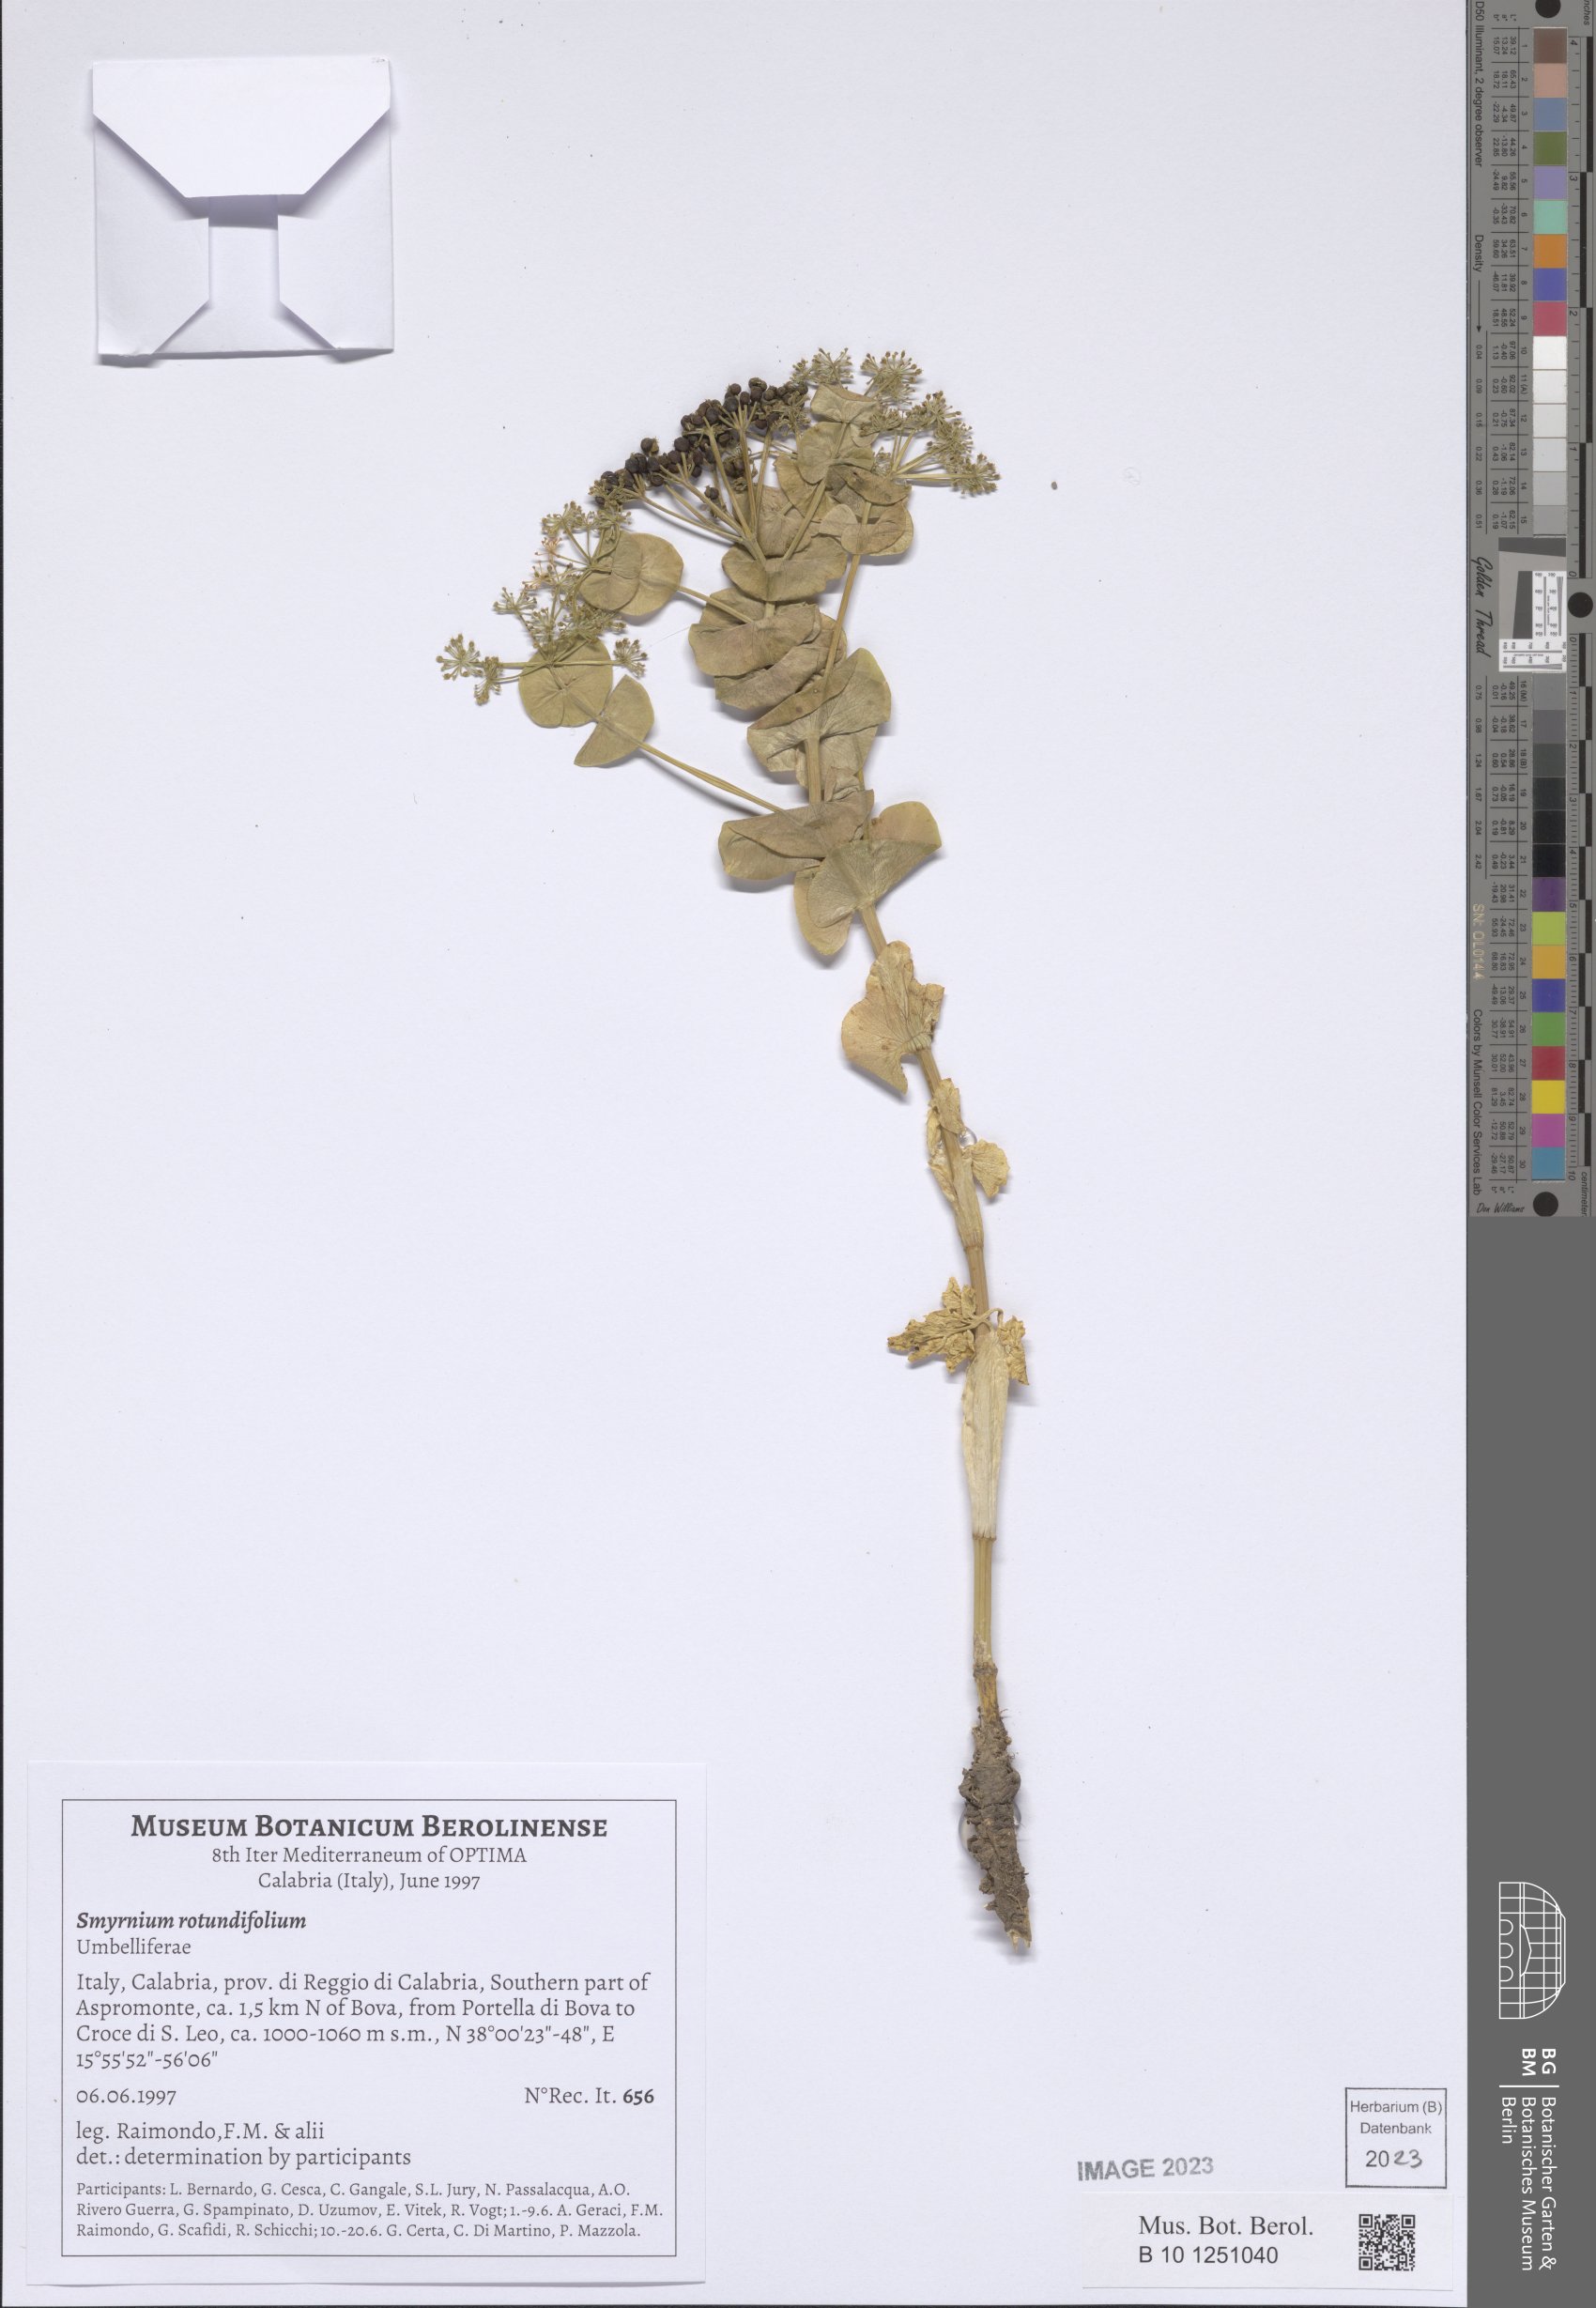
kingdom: Plantae
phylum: Tracheophyta
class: Magnoliopsida
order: Apiales
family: Apiaceae
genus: Smyrnium
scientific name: Smyrnium perfoliatum
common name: Perfoliate alexanders
